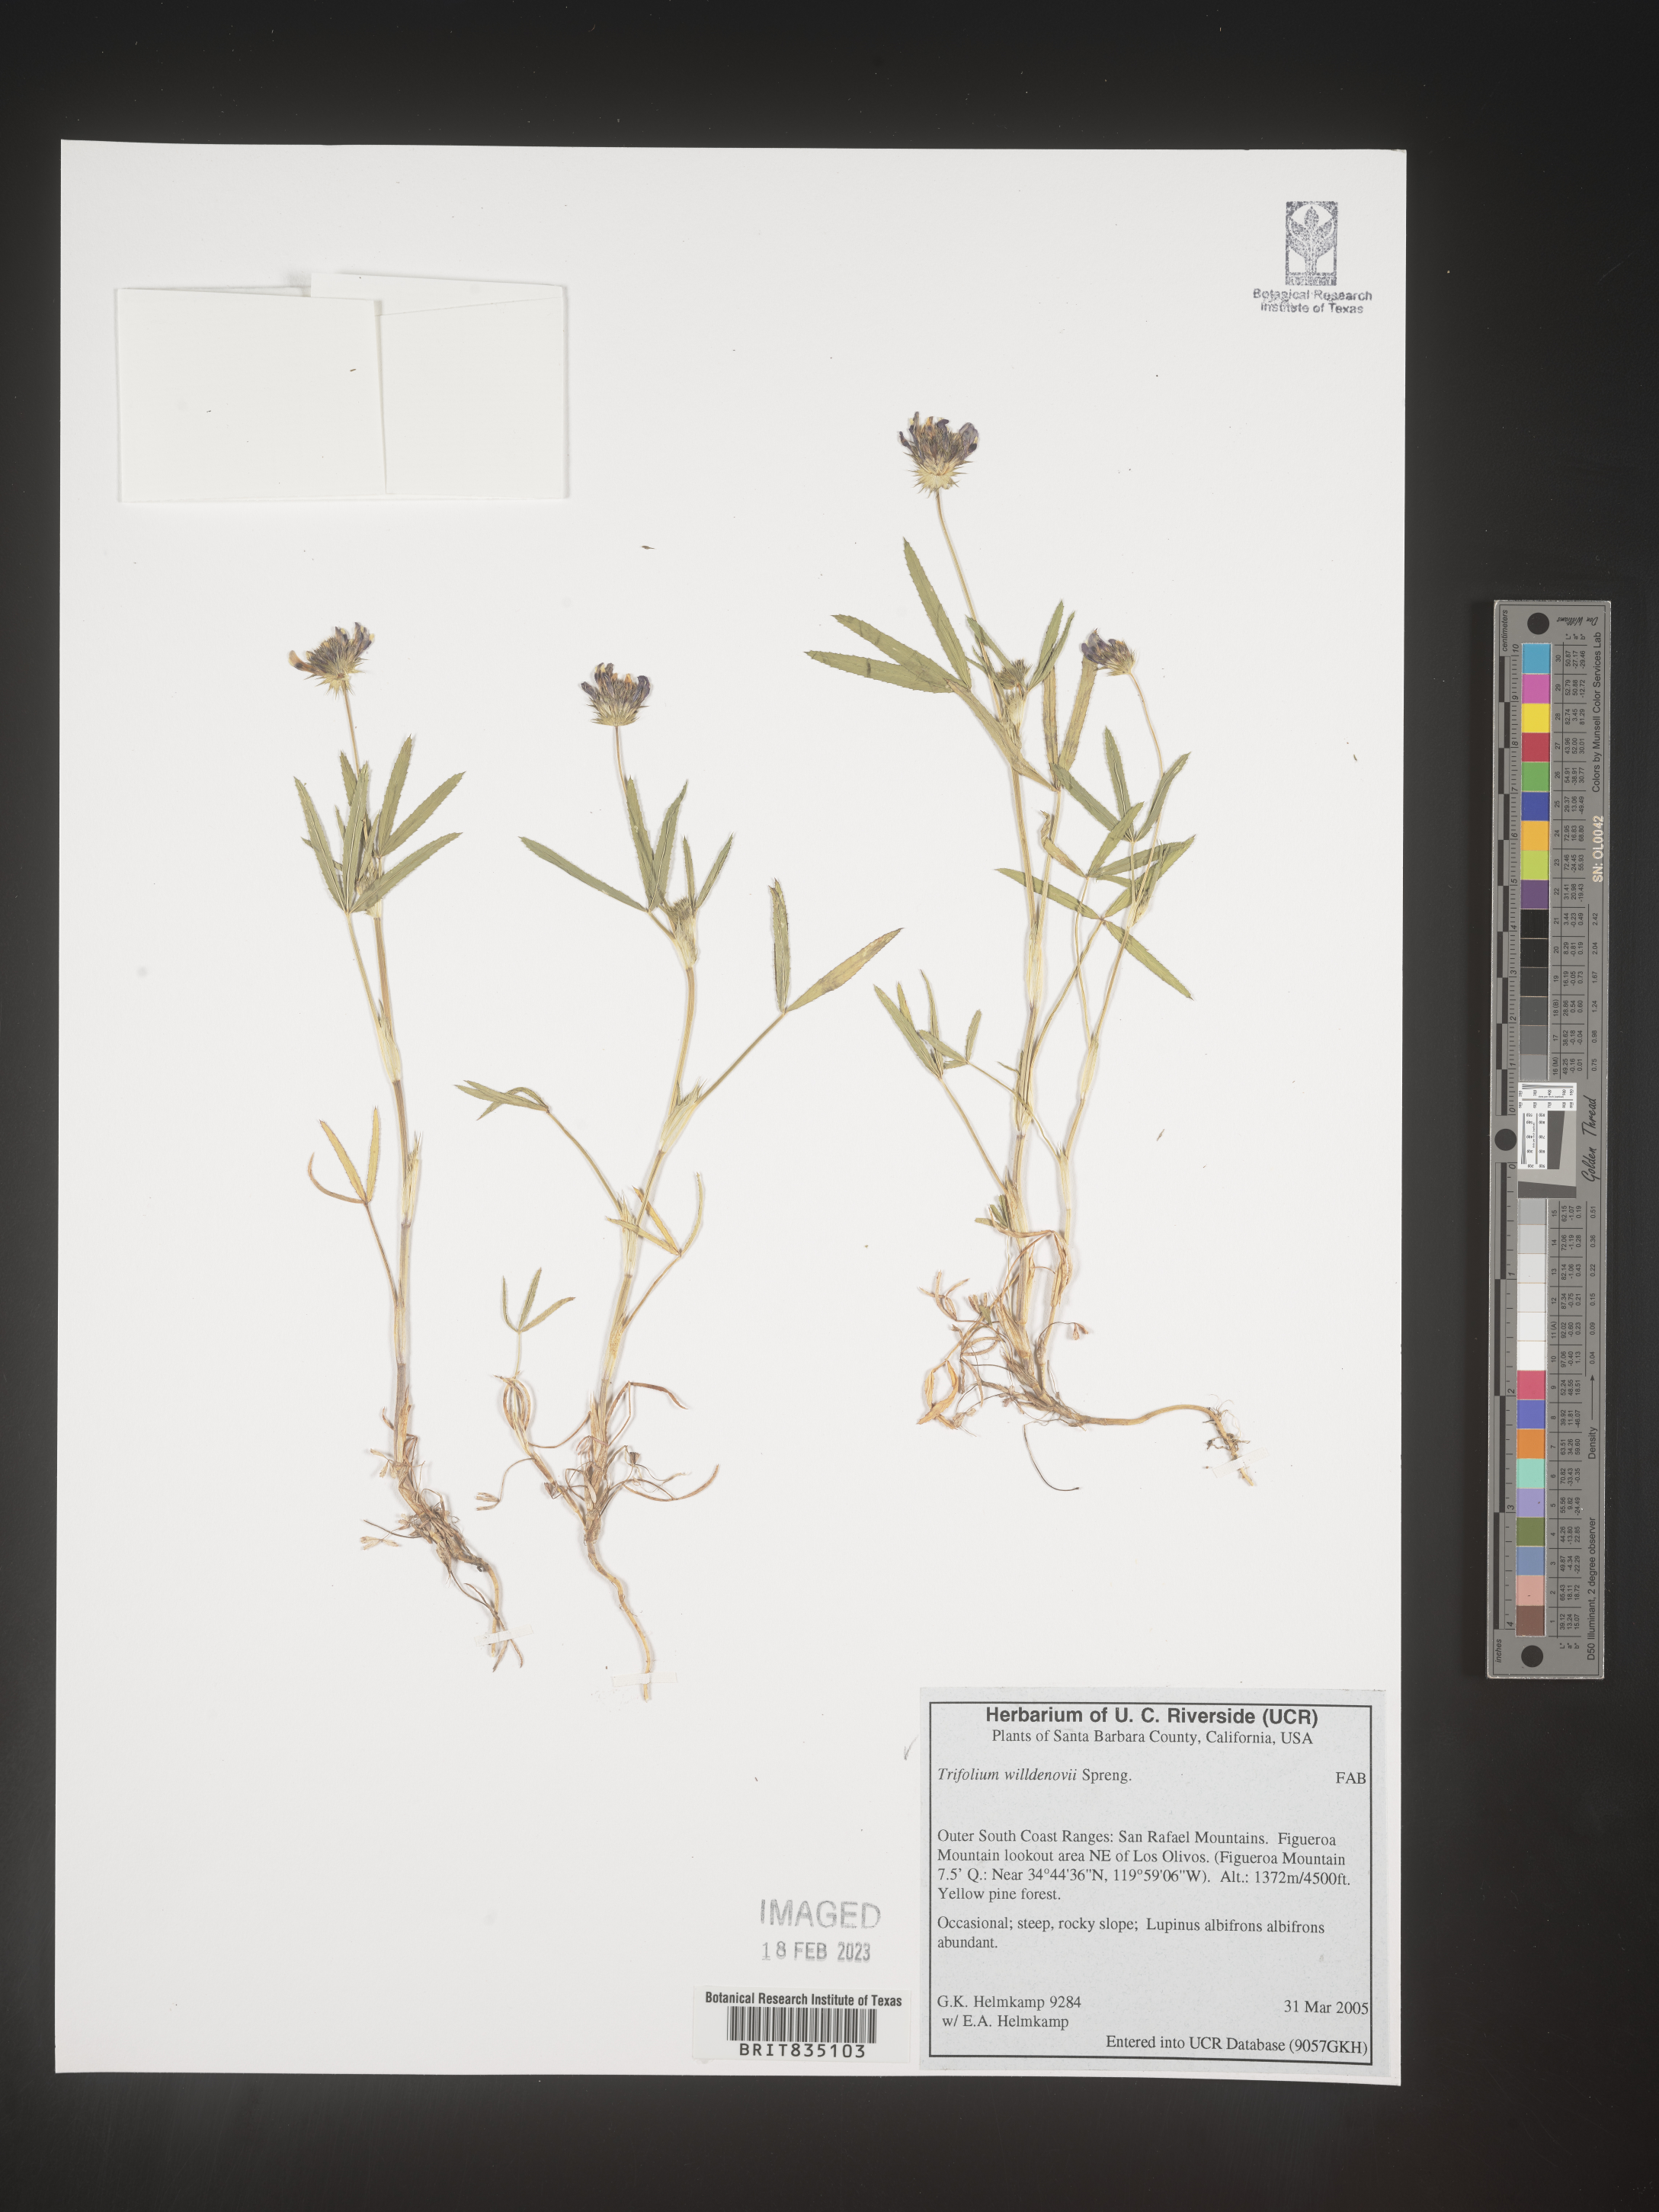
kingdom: Plantae
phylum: Tracheophyta
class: Magnoliopsida
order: Fabales
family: Fabaceae
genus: Trifolium
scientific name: Trifolium willdenovii
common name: Tomcat clover
